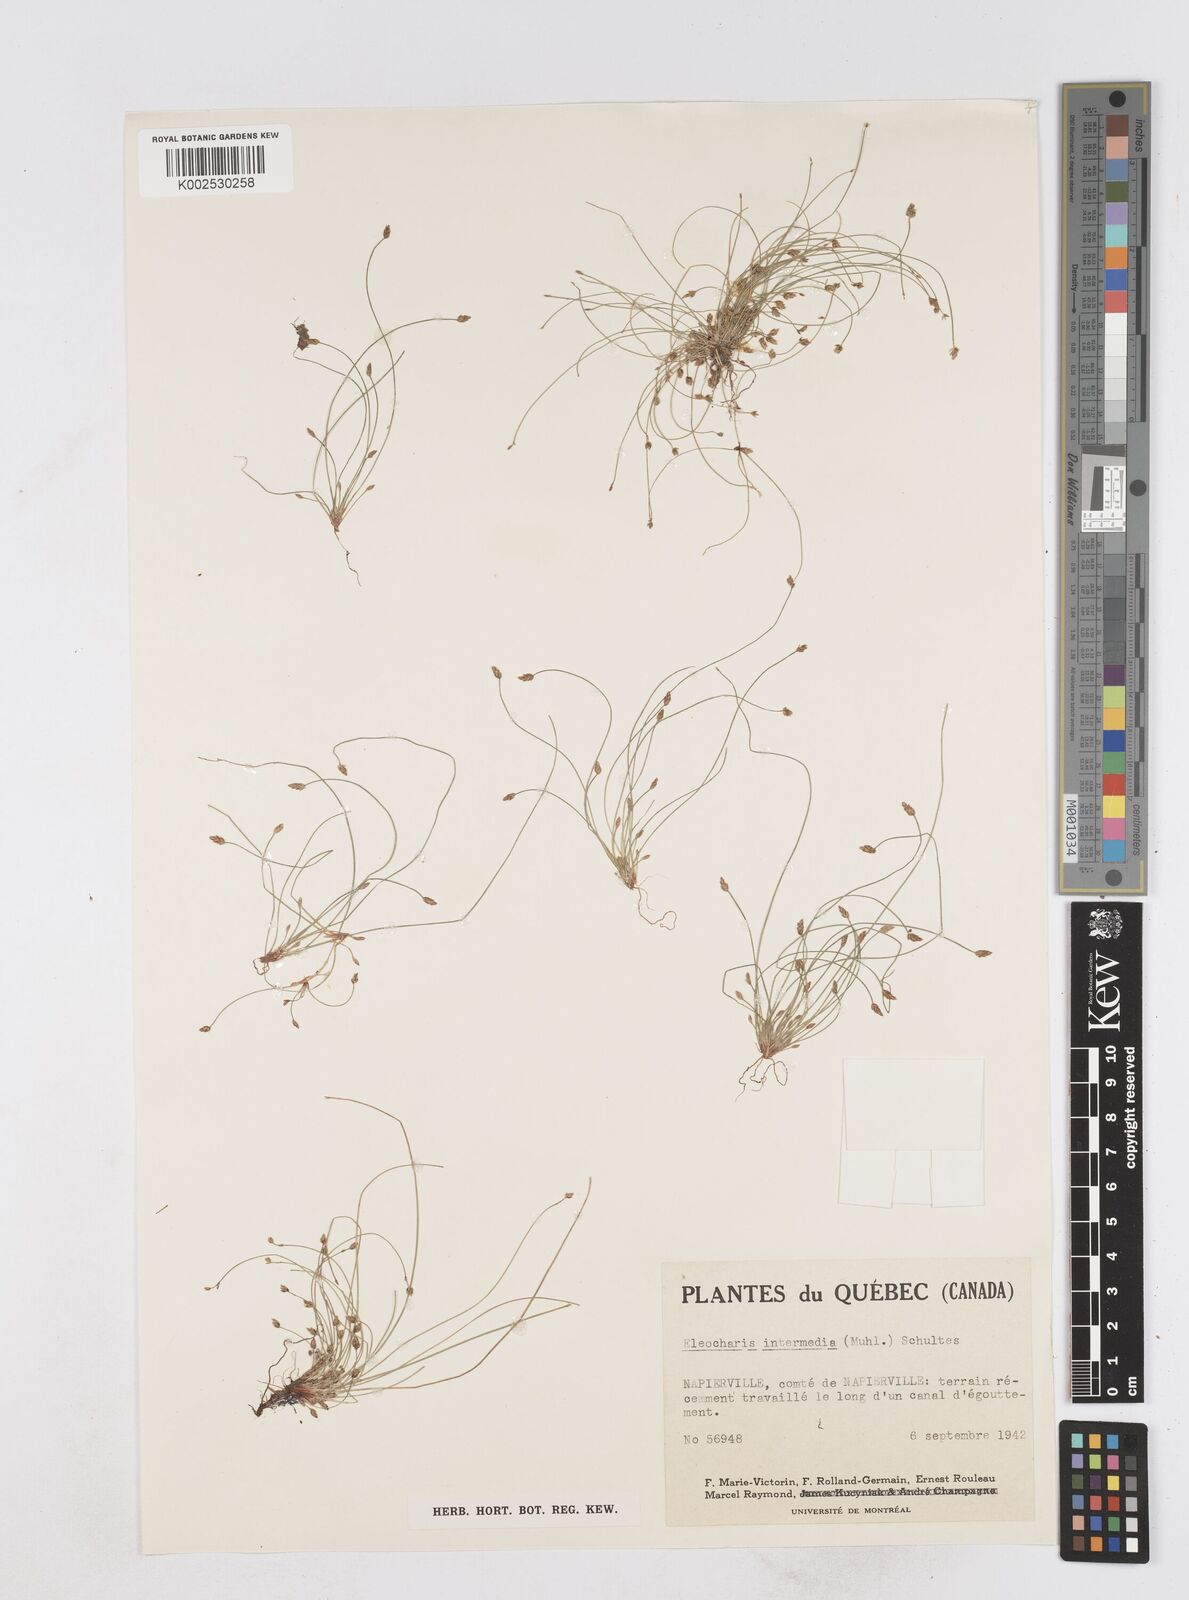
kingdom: Plantae
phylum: Tracheophyta
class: Liliopsida
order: Poales
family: Cyperaceae
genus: Eleocharis
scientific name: Eleocharis intermedia
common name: Intermediate spikerush
